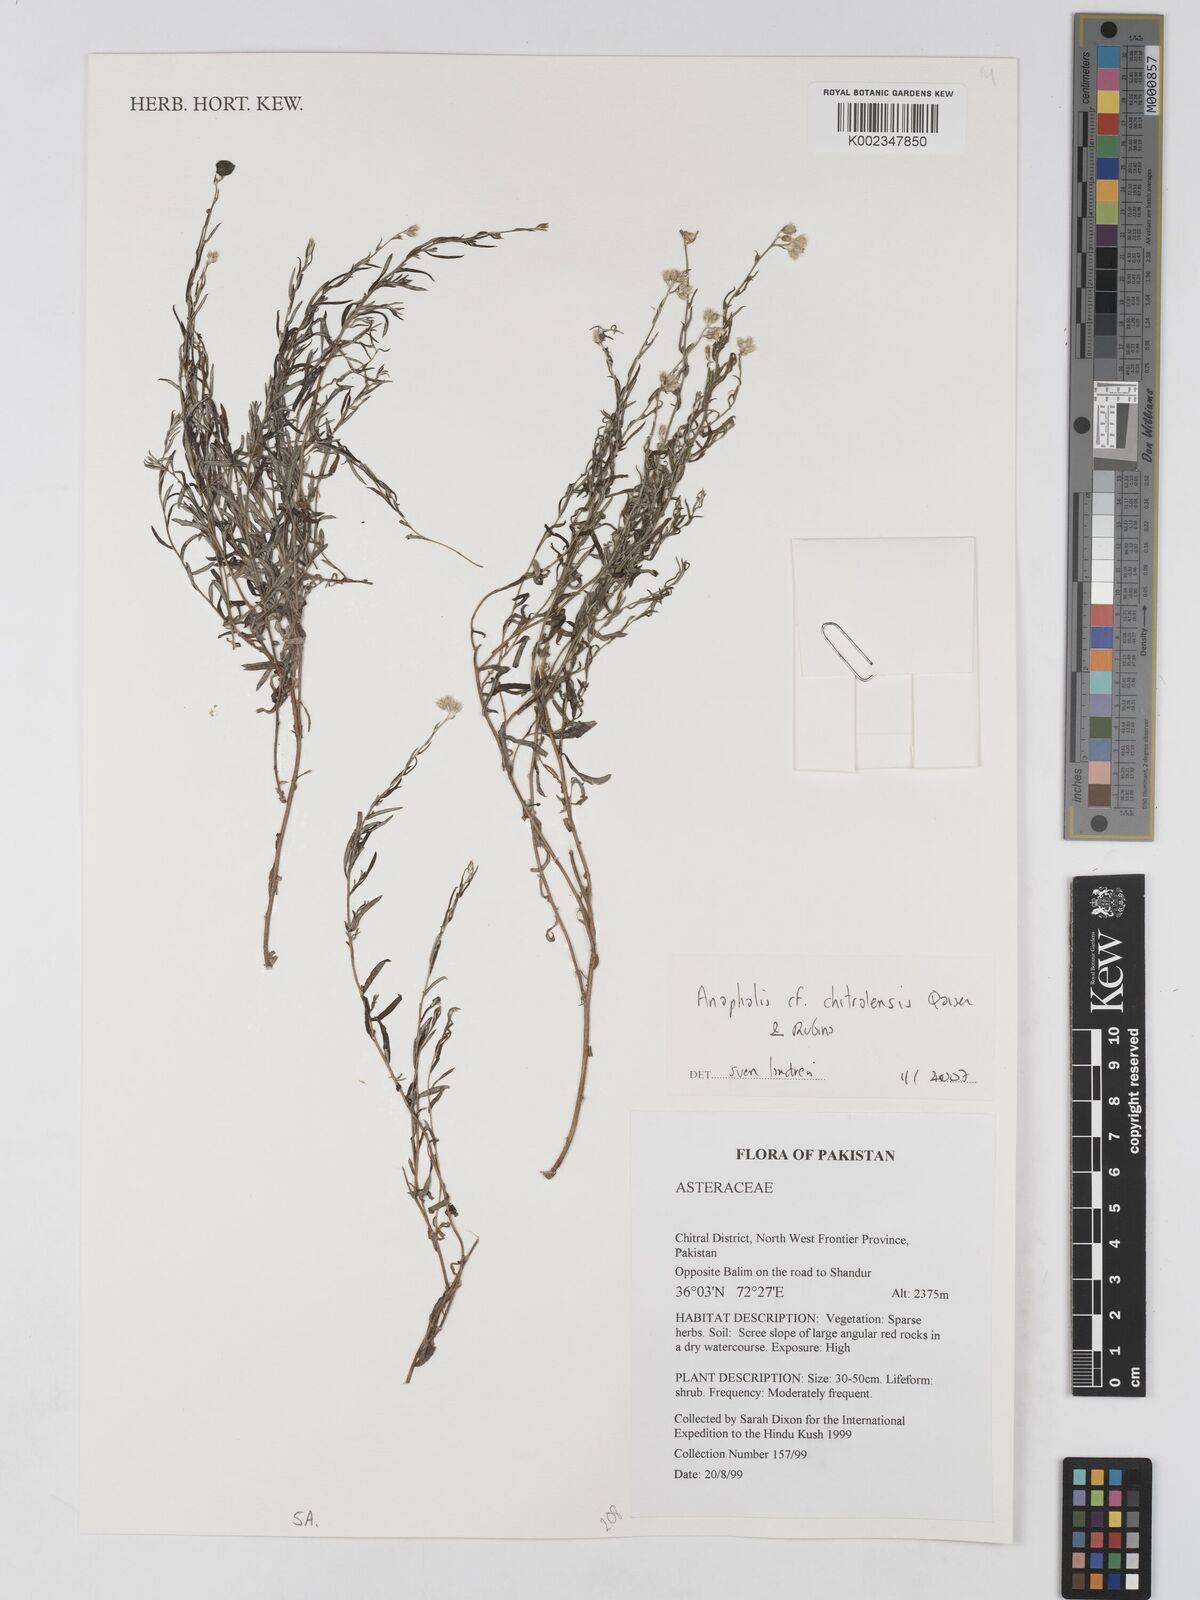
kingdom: Plantae
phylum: Tracheophyta
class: Magnoliopsida
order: Asterales
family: Asteraceae
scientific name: Asteraceae
